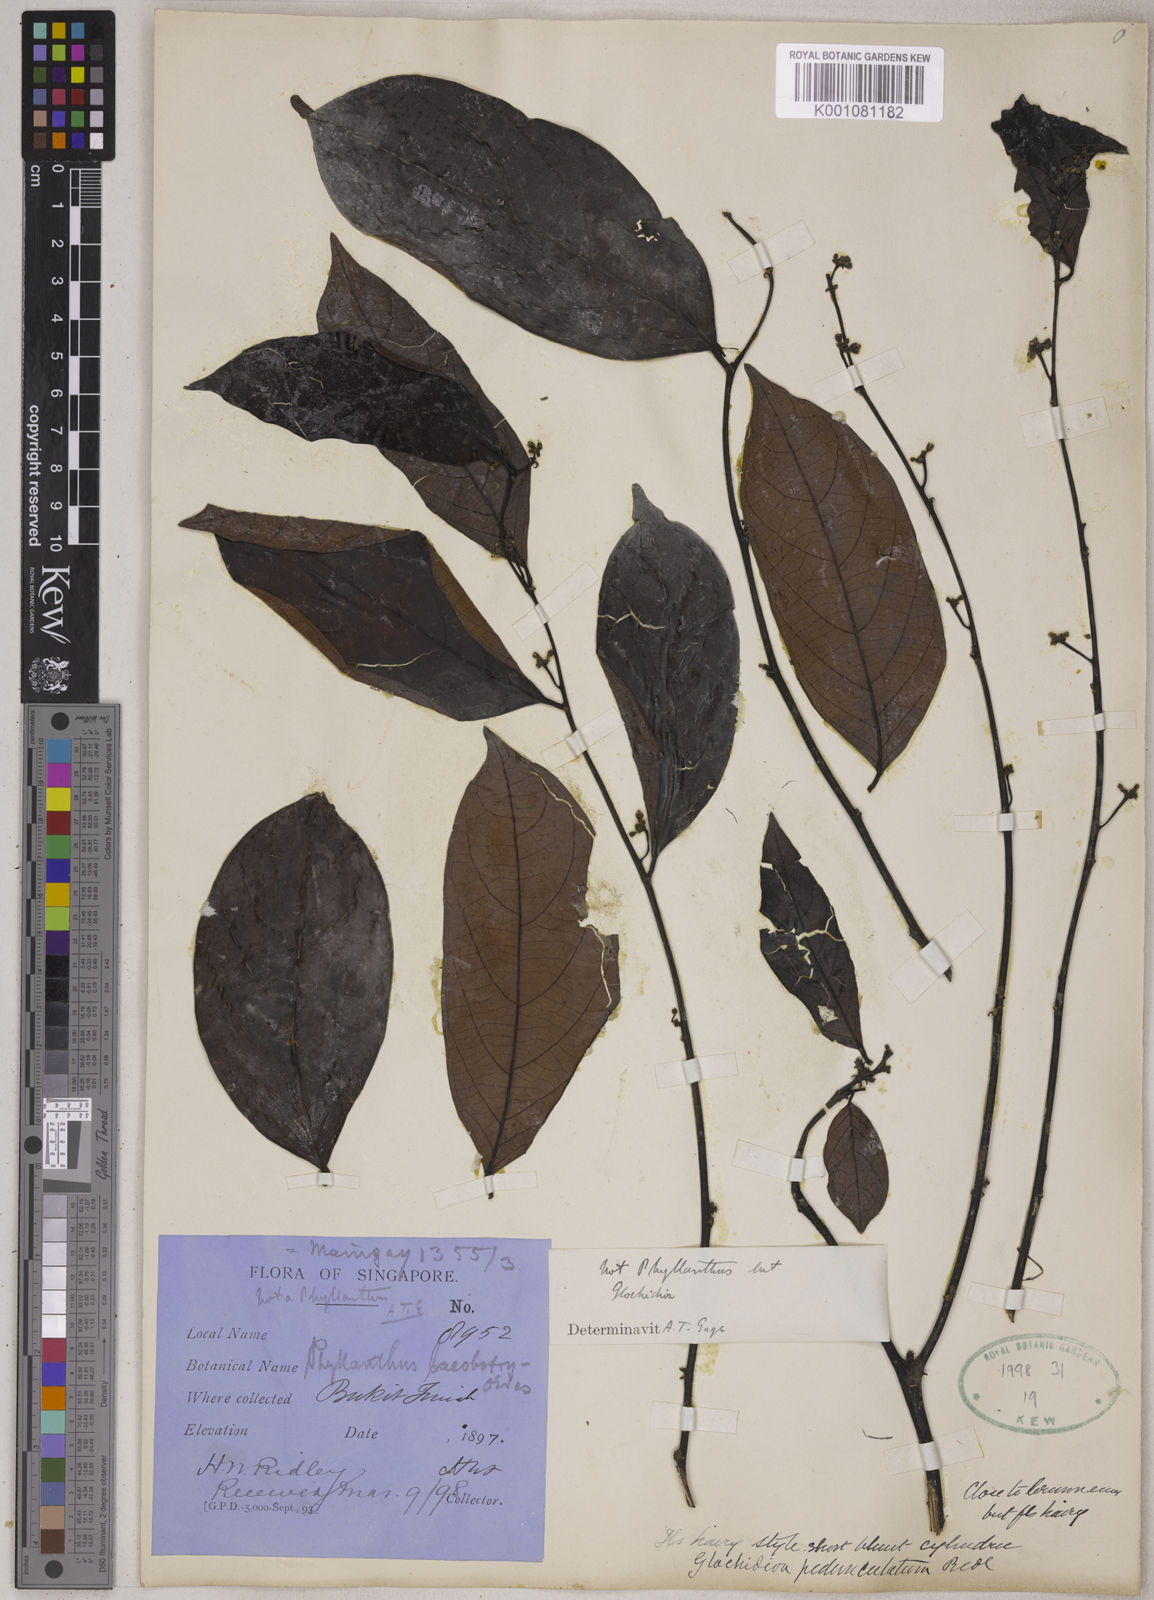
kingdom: Plantae
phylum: Tracheophyta
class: Magnoliopsida
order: Malpighiales
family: Phyllanthaceae
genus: Glochidion
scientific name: Glochidion zeylanicum
